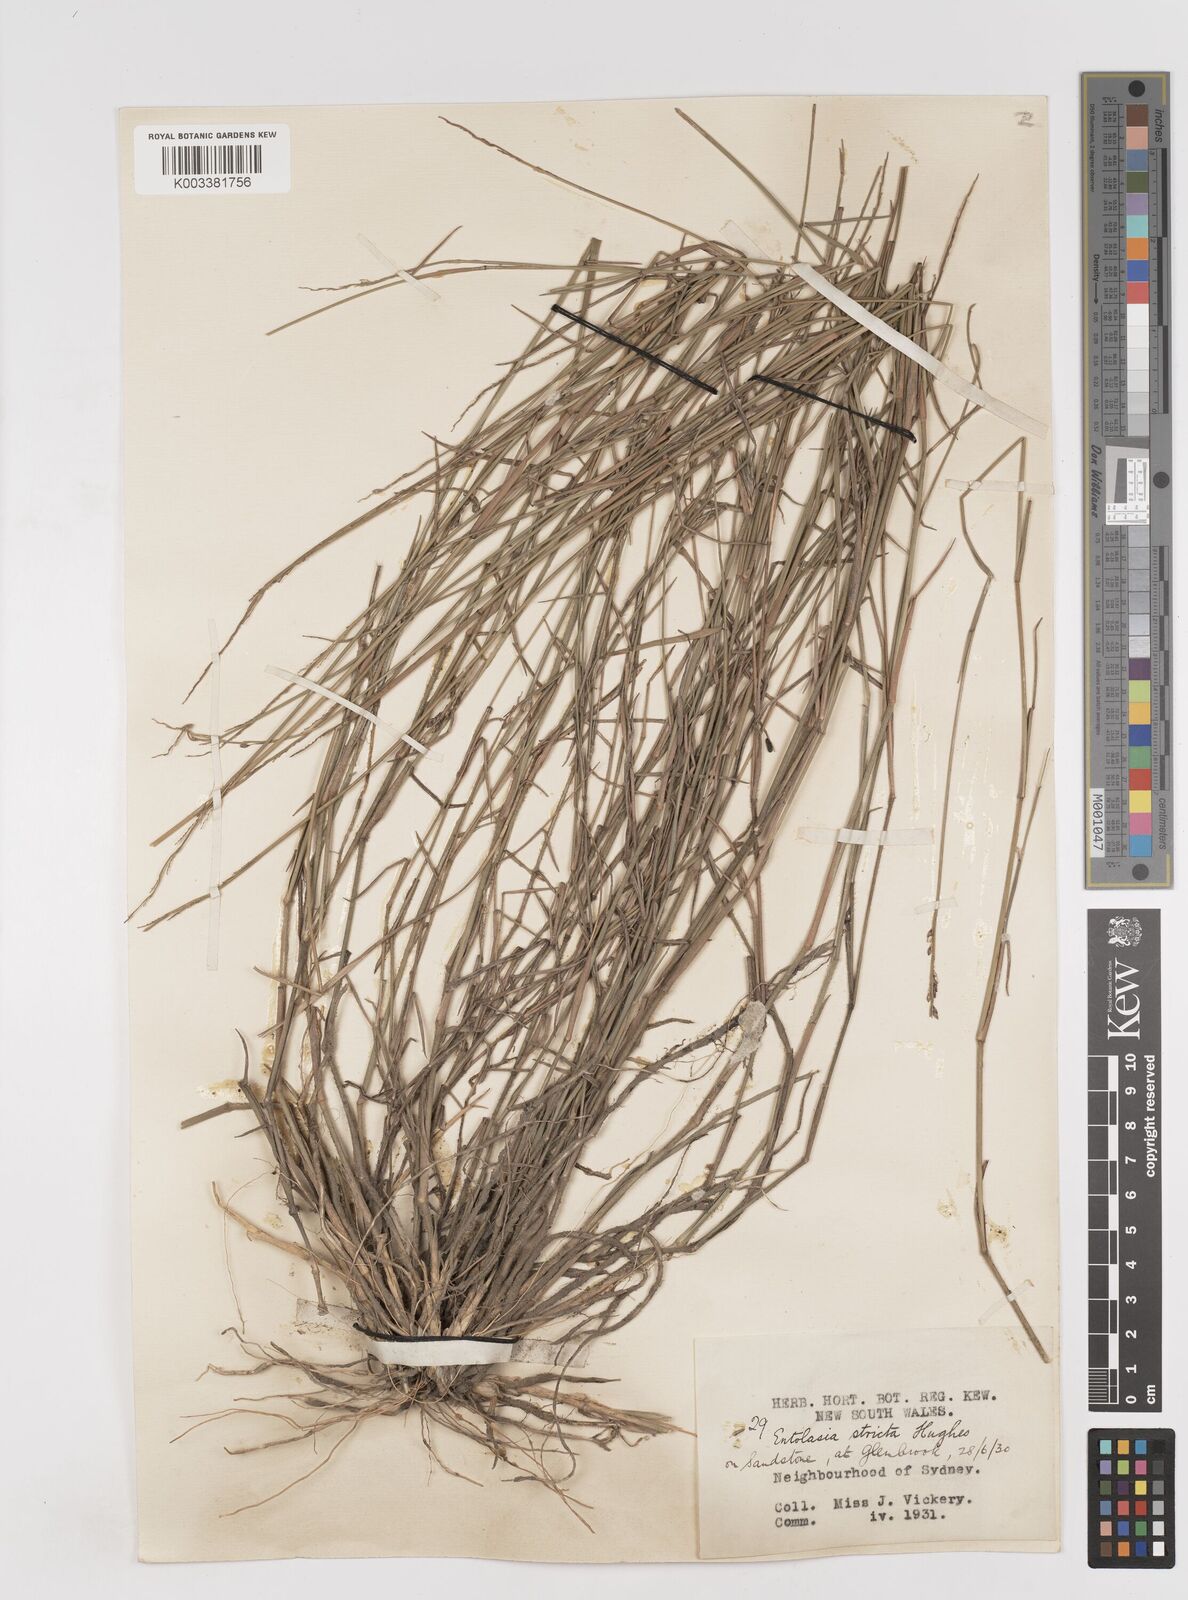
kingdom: Plantae
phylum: Tracheophyta
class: Liliopsida
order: Poales
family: Poaceae
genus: Entolasia
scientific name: Entolasia stricta
